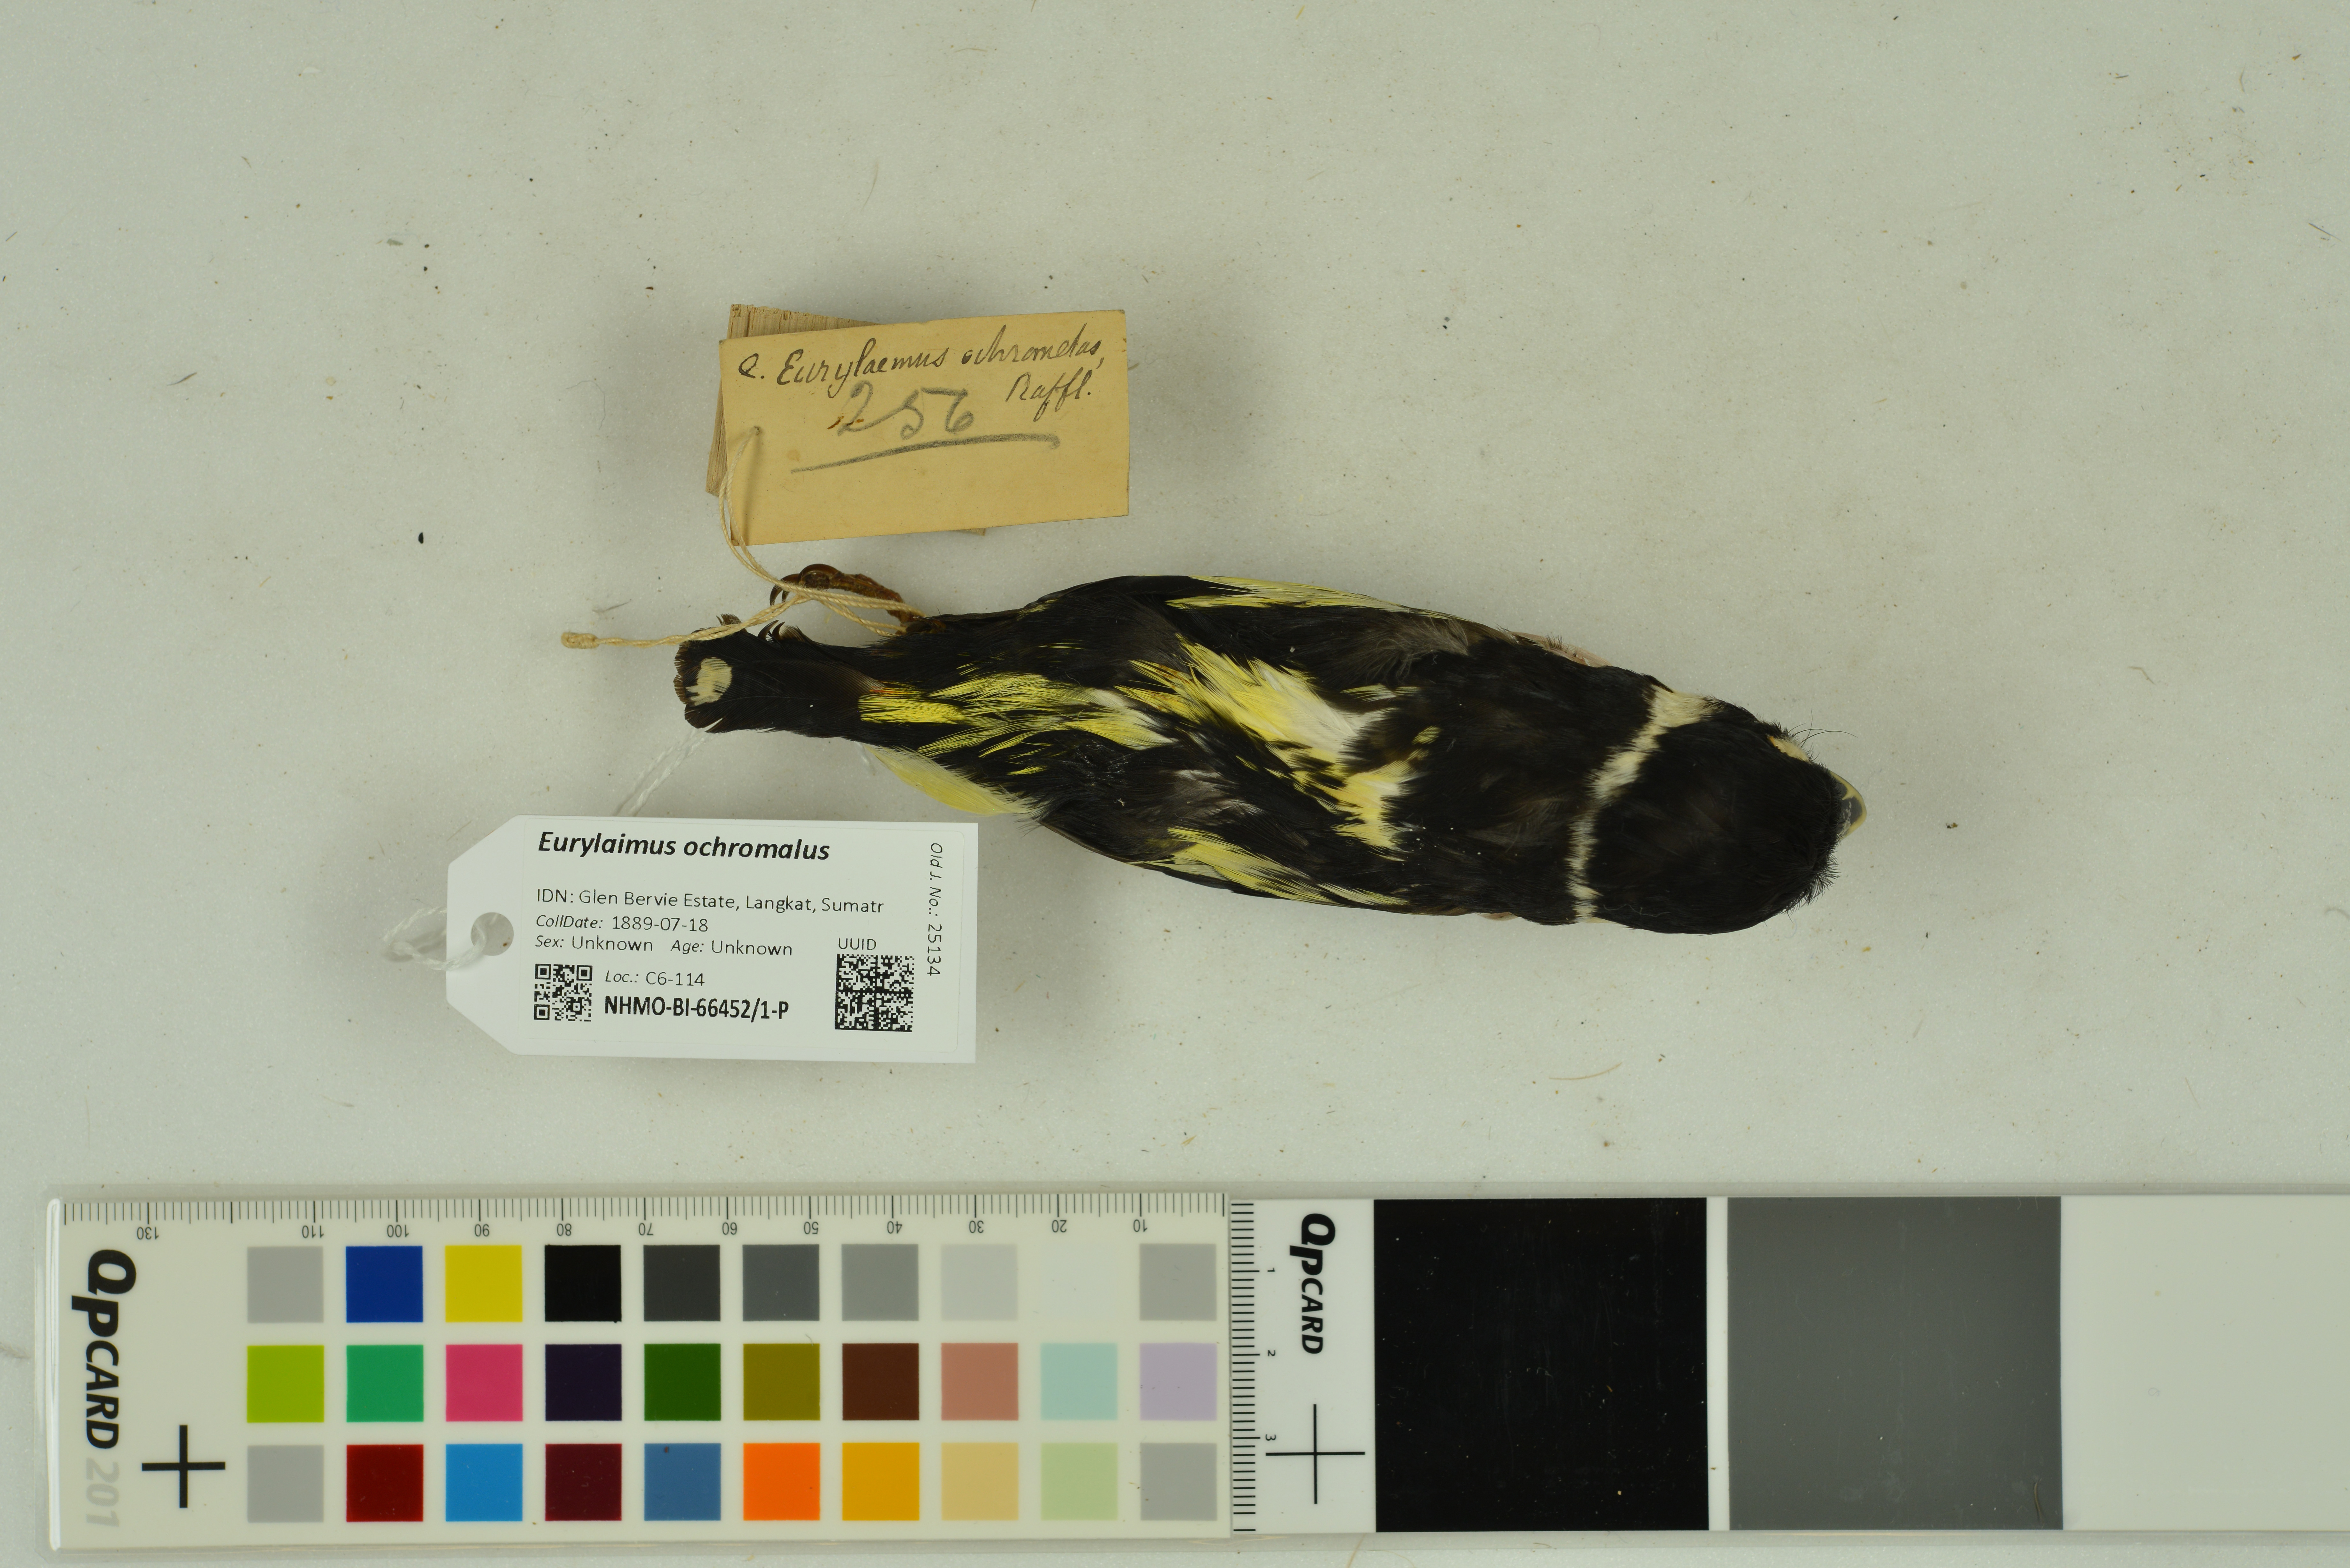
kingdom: Animalia
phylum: Chordata
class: Aves
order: Passeriformes
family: Eurylaimidae
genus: Eurylaimus
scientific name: Eurylaimus ochromalus
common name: Black-and-yellow broadbill
